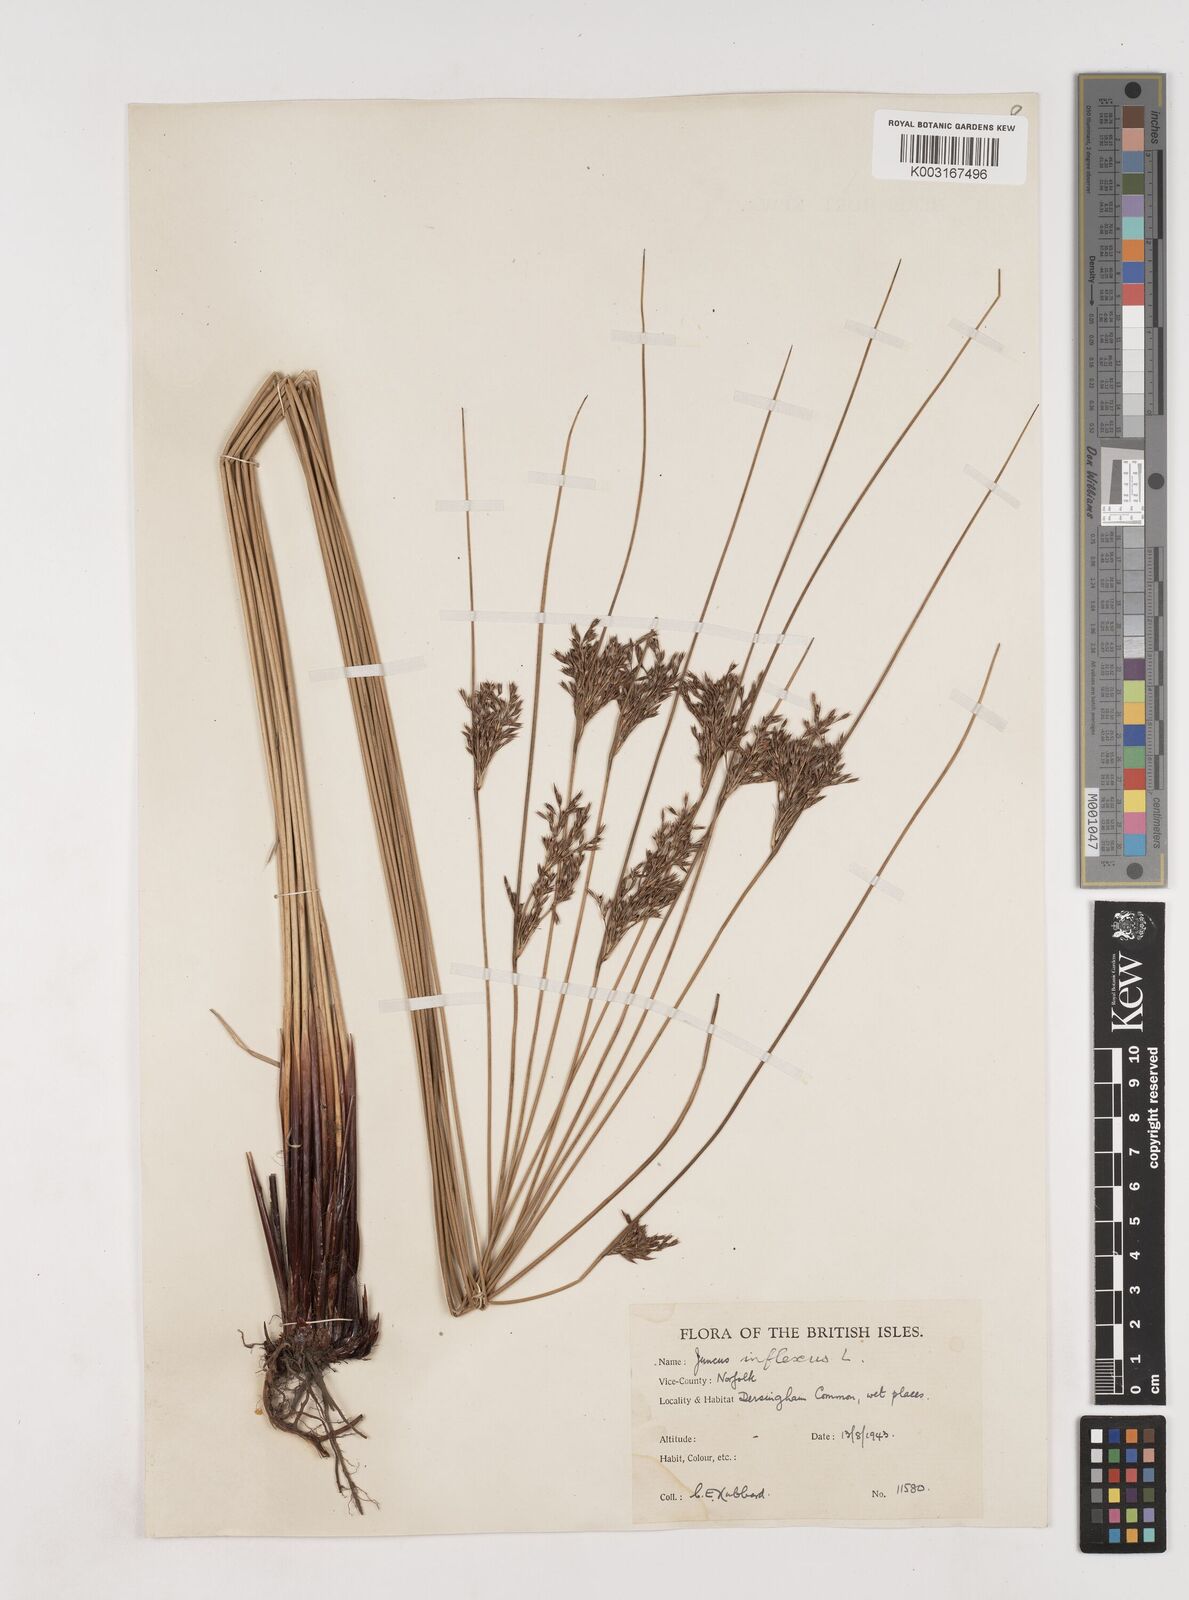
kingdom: Plantae
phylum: Tracheophyta
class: Liliopsida
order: Poales
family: Juncaceae
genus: Juncus
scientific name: Juncus inflexus
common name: Hard rush
